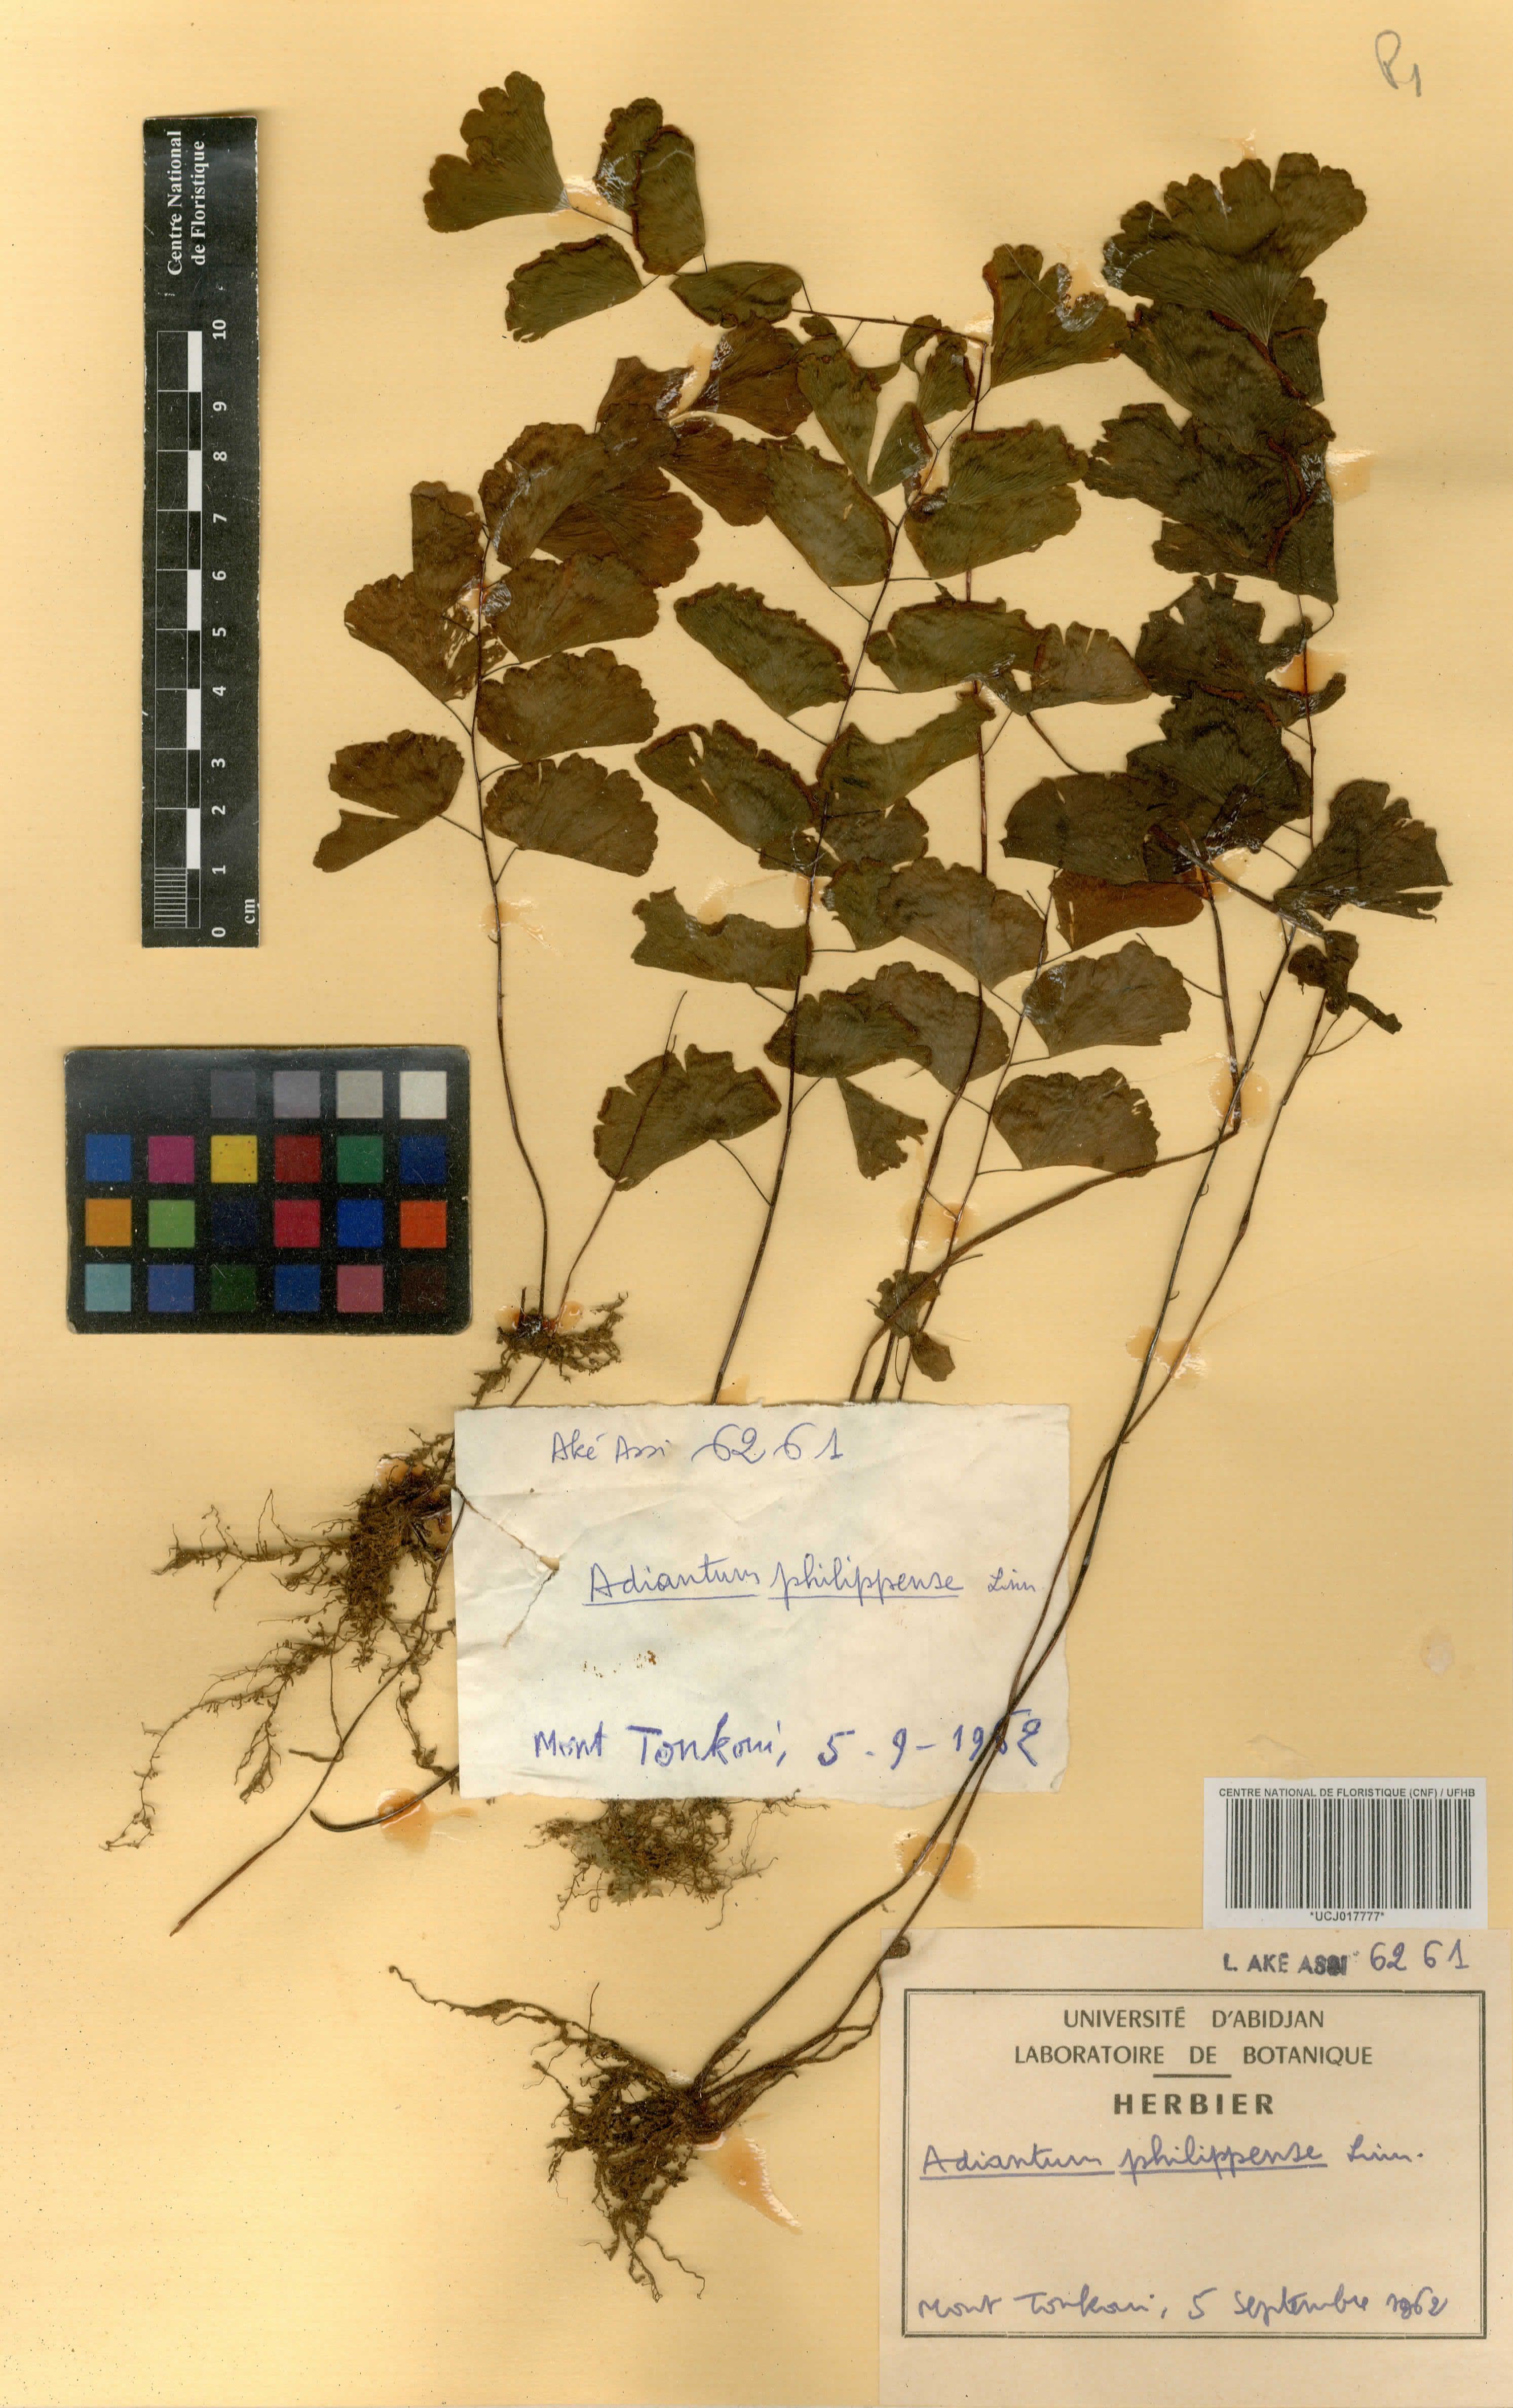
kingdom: Plantae
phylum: Tracheophyta
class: Polypodiopsida
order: Polypodiales
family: Pteridaceae
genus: Adiantum
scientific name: Adiantum philippense
